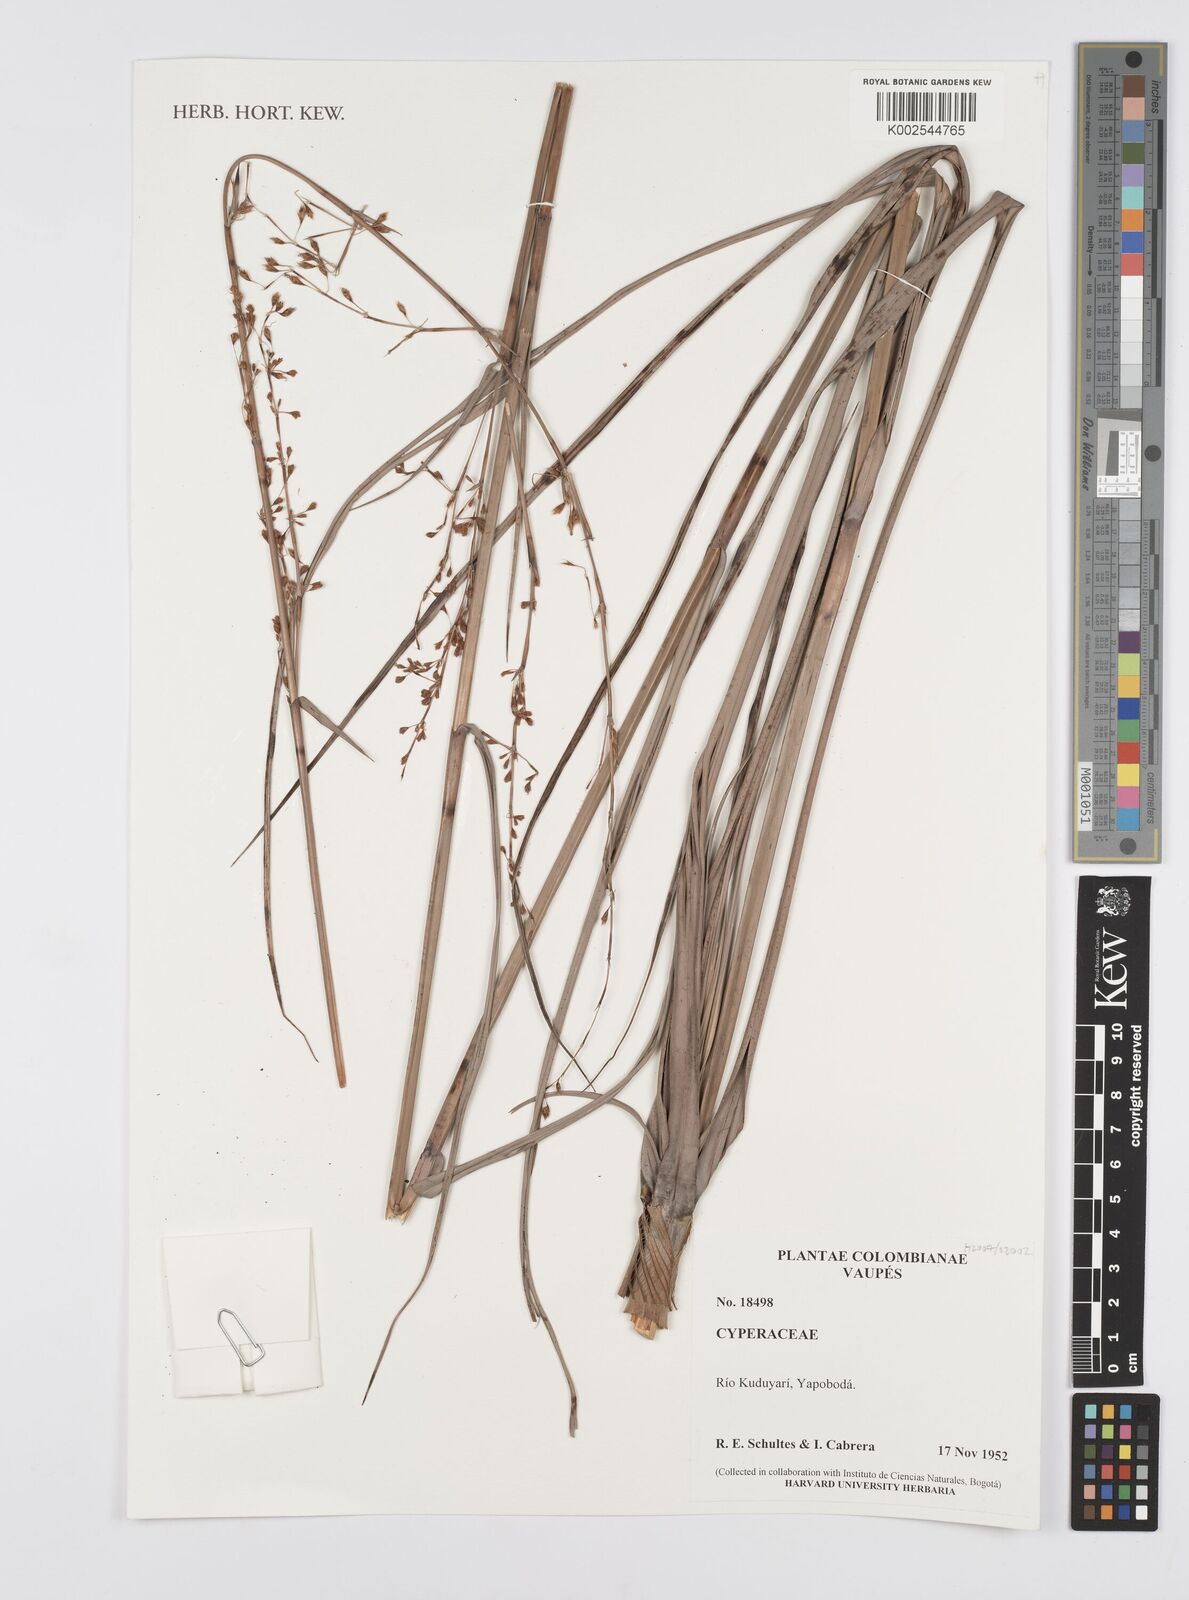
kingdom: Plantae
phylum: Tracheophyta
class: Liliopsida
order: Poales
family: Cyperaceae
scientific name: Cyperaceae
